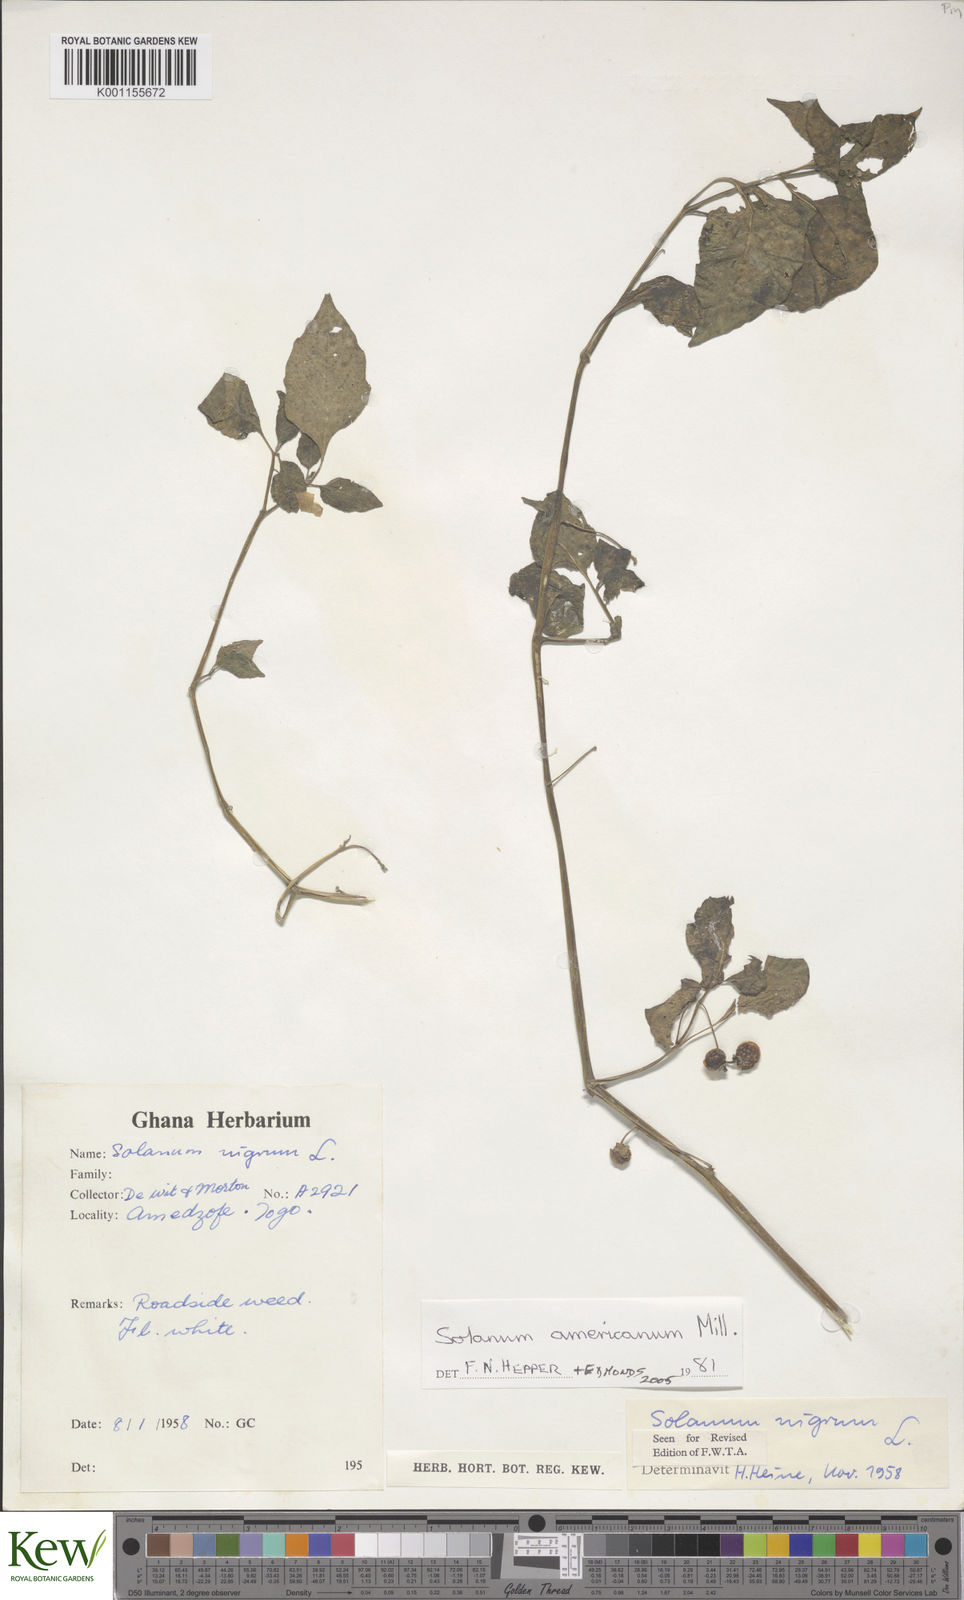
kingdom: Plantae
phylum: Tracheophyta
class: Magnoliopsida
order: Solanales
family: Solanaceae
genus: Solanum
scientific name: Solanum scabrum
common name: Garden-huckleberry
